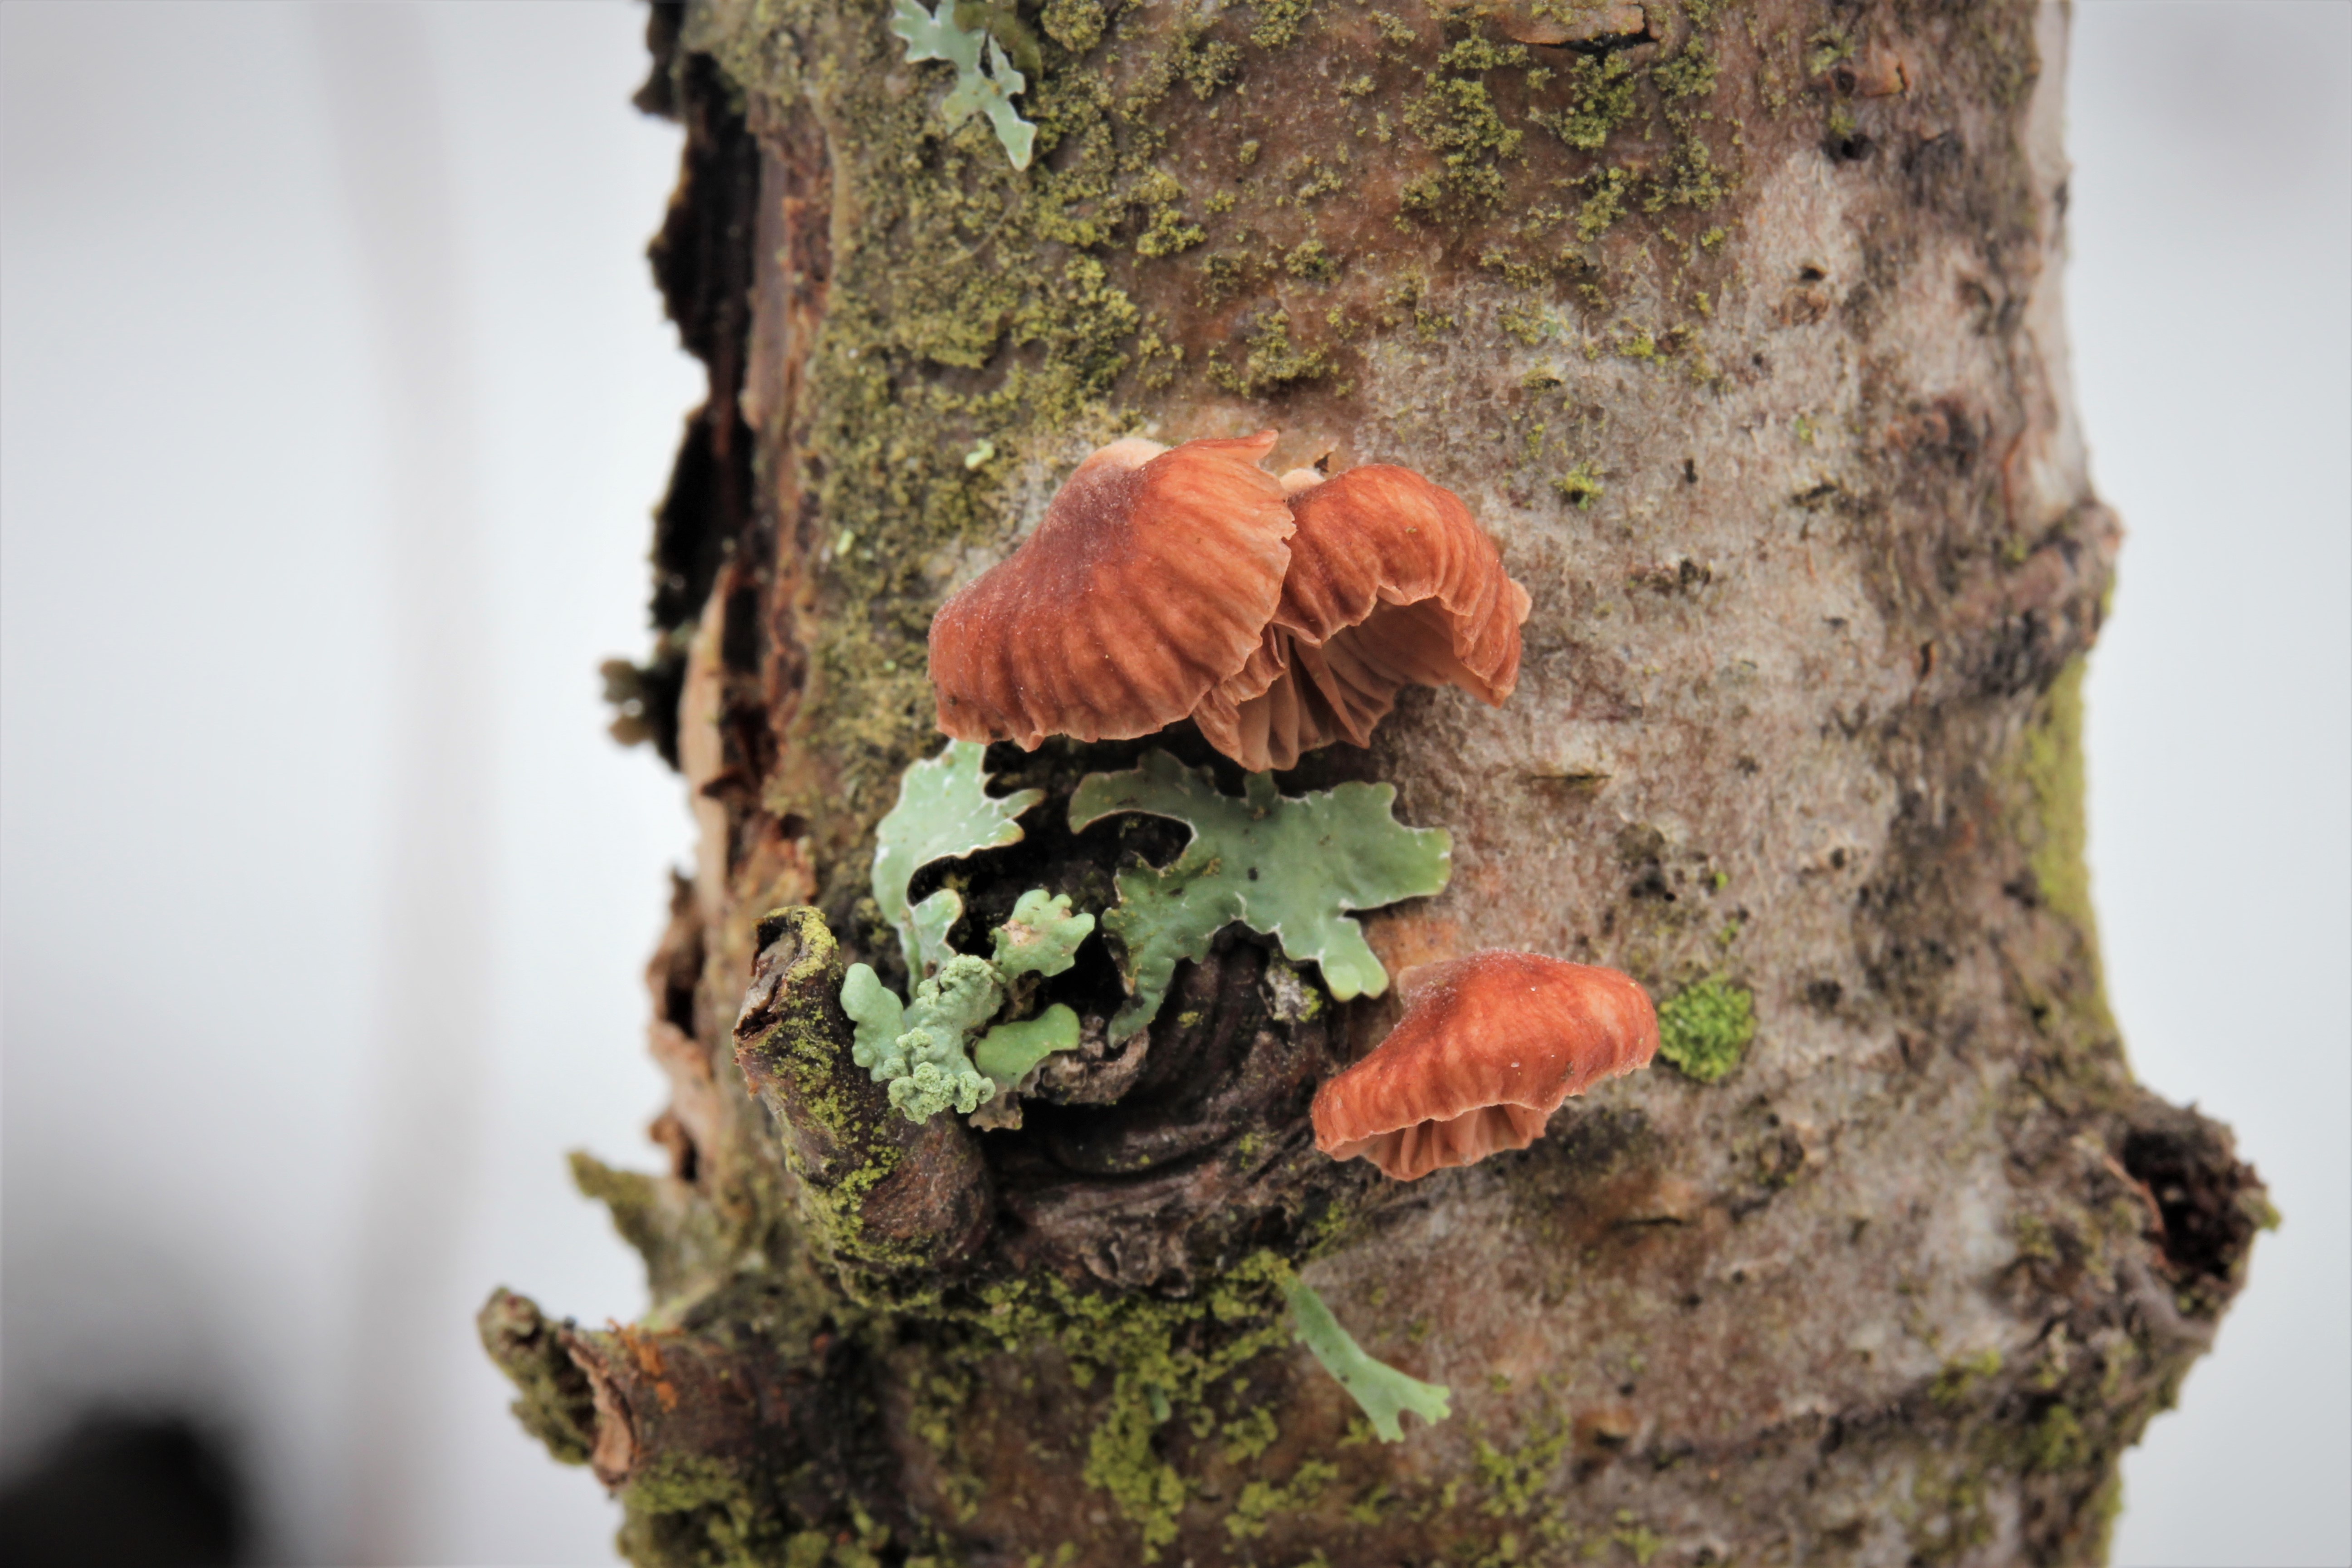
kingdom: Fungi
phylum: Basidiomycota
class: Agaricomycetes
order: Agaricales
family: Mycenaceae
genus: Panellus
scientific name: Panellus ringens
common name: Winter oysterling
